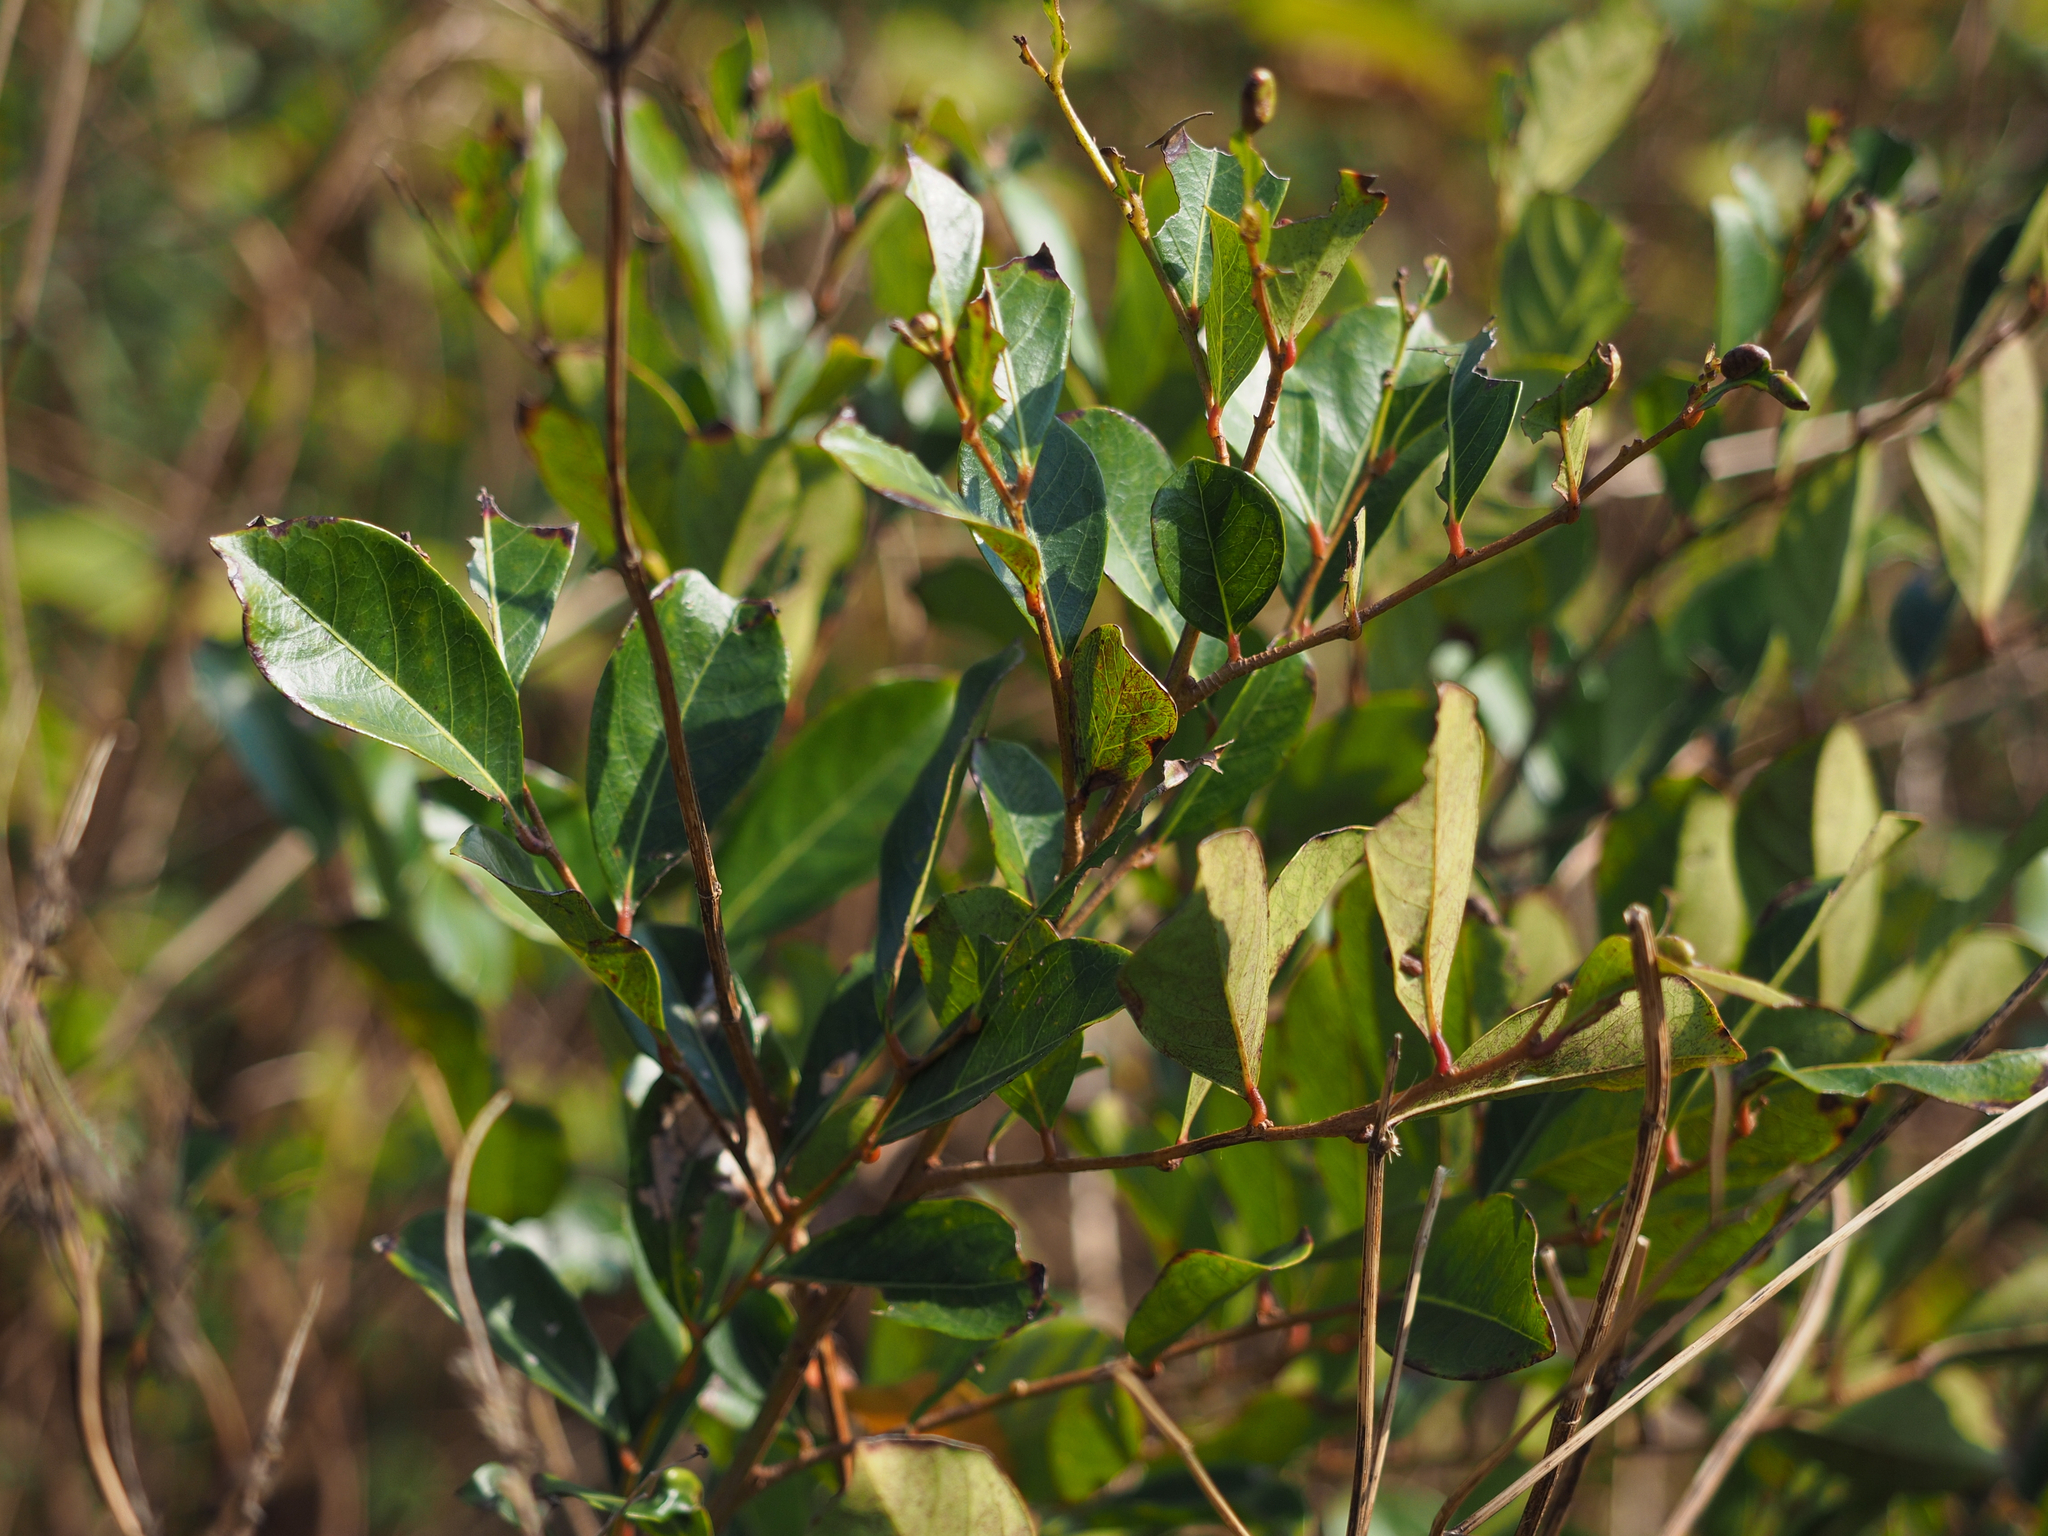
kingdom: Plantae
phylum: Tracheophyta
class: Magnoliopsida
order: Malpighiales
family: Phyllanthaceae
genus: Glochidion
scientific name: Glochidion rubrum
